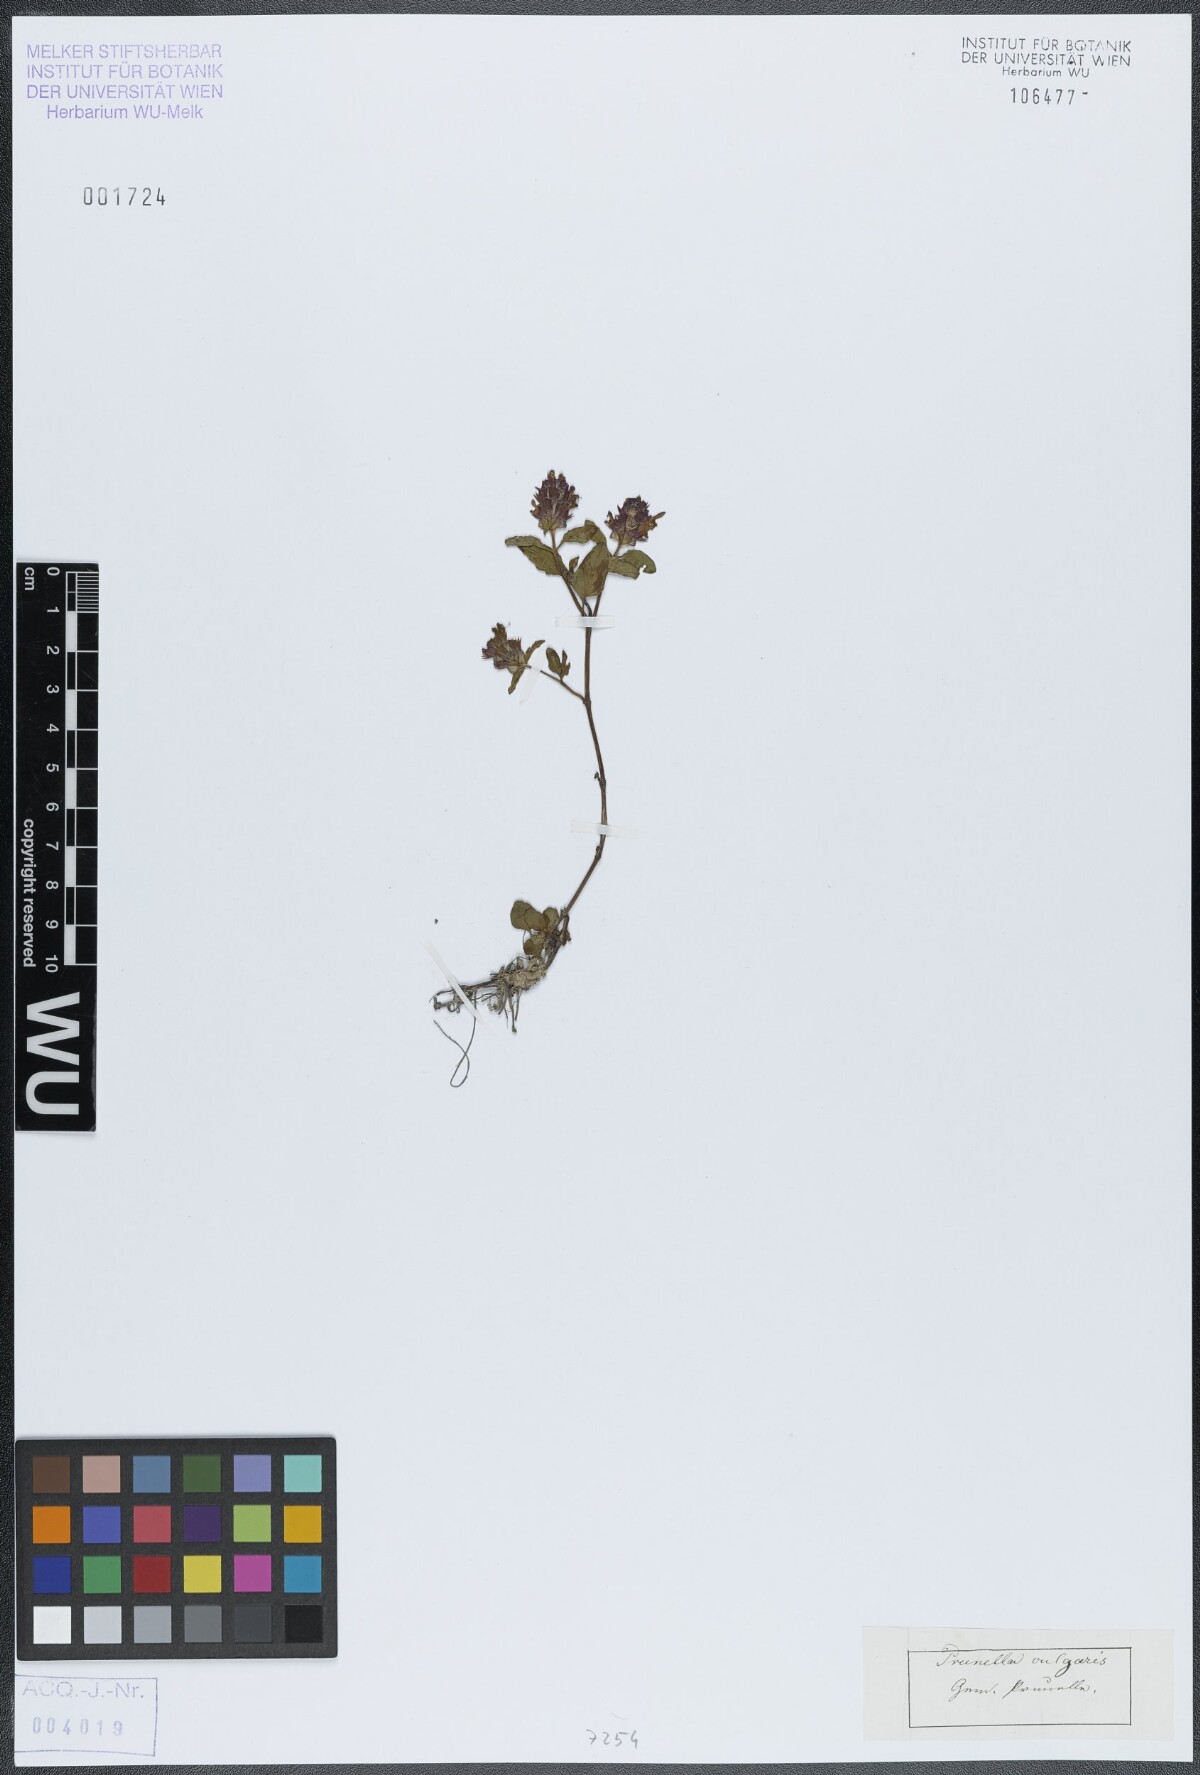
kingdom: Plantae
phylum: Tracheophyta
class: Magnoliopsida
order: Lamiales
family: Lamiaceae
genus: Prunella
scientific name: Prunella vulgaris
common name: Heal-all
